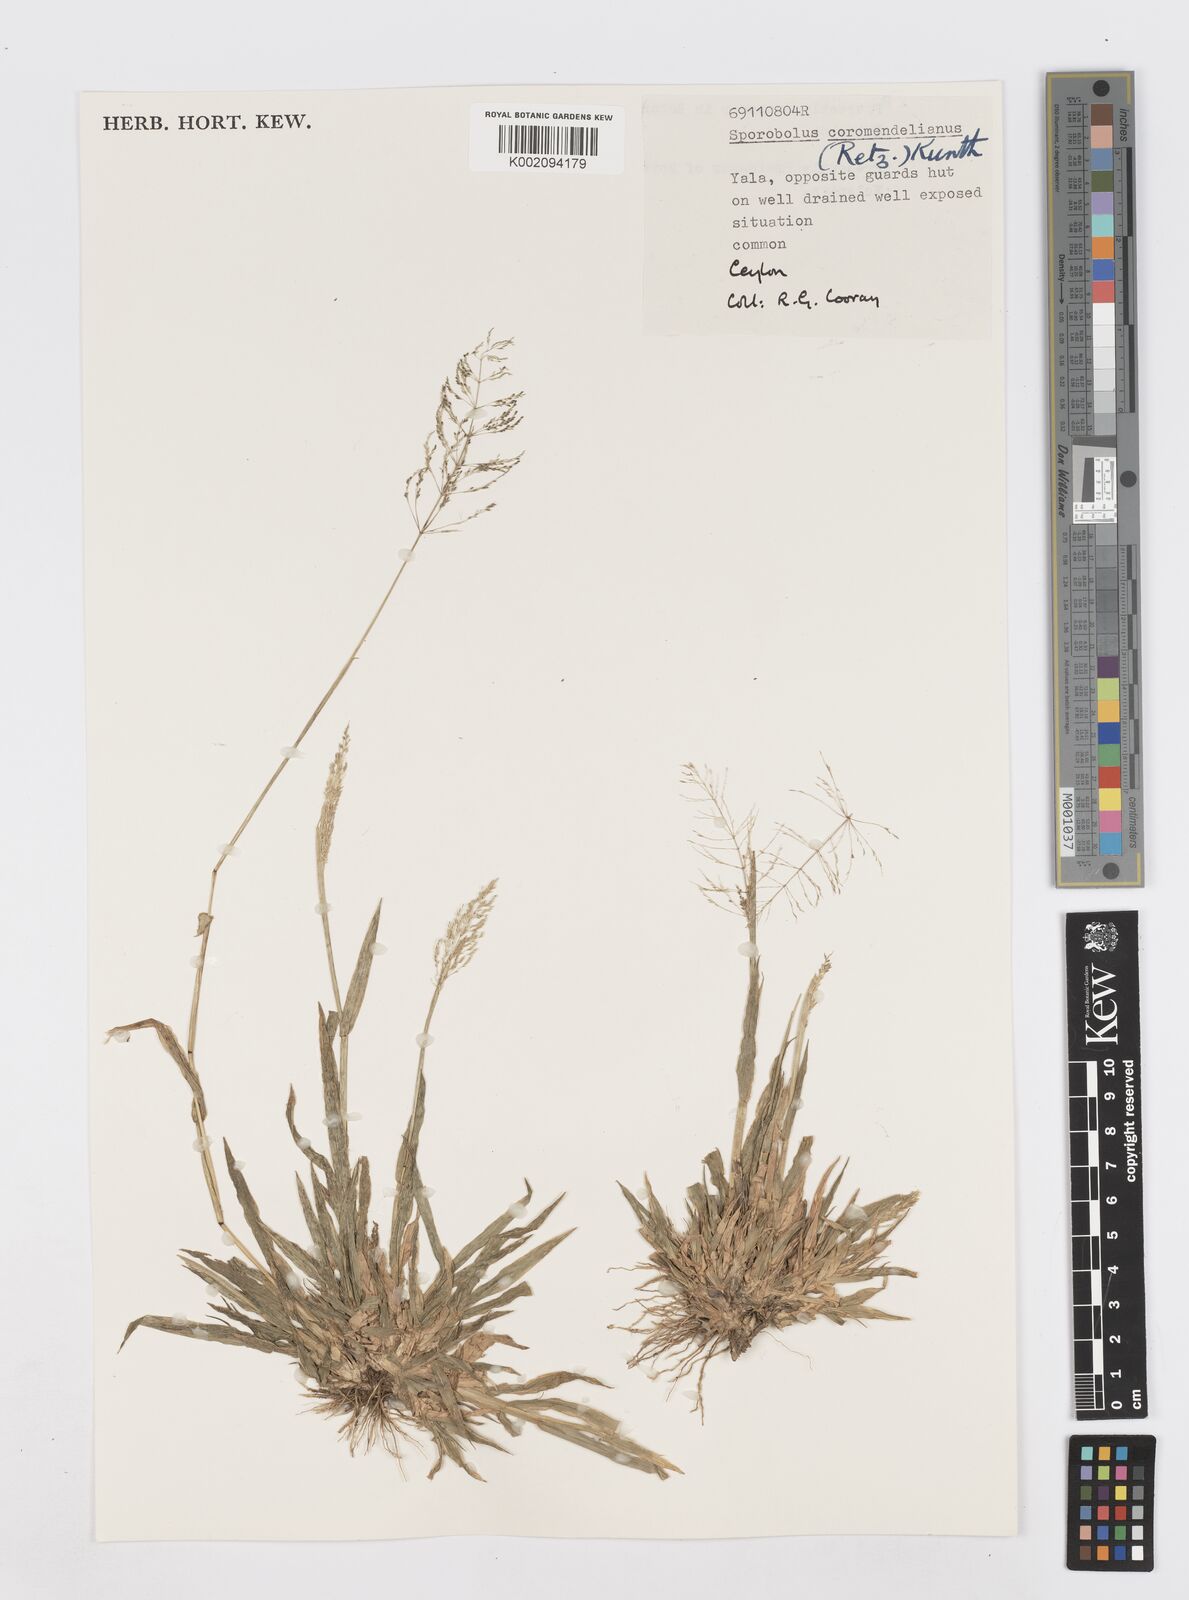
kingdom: Plantae
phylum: Tracheophyta
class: Liliopsida
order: Poales
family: Poaceae
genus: Sporobolus
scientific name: Sporobolus coromandelianus
